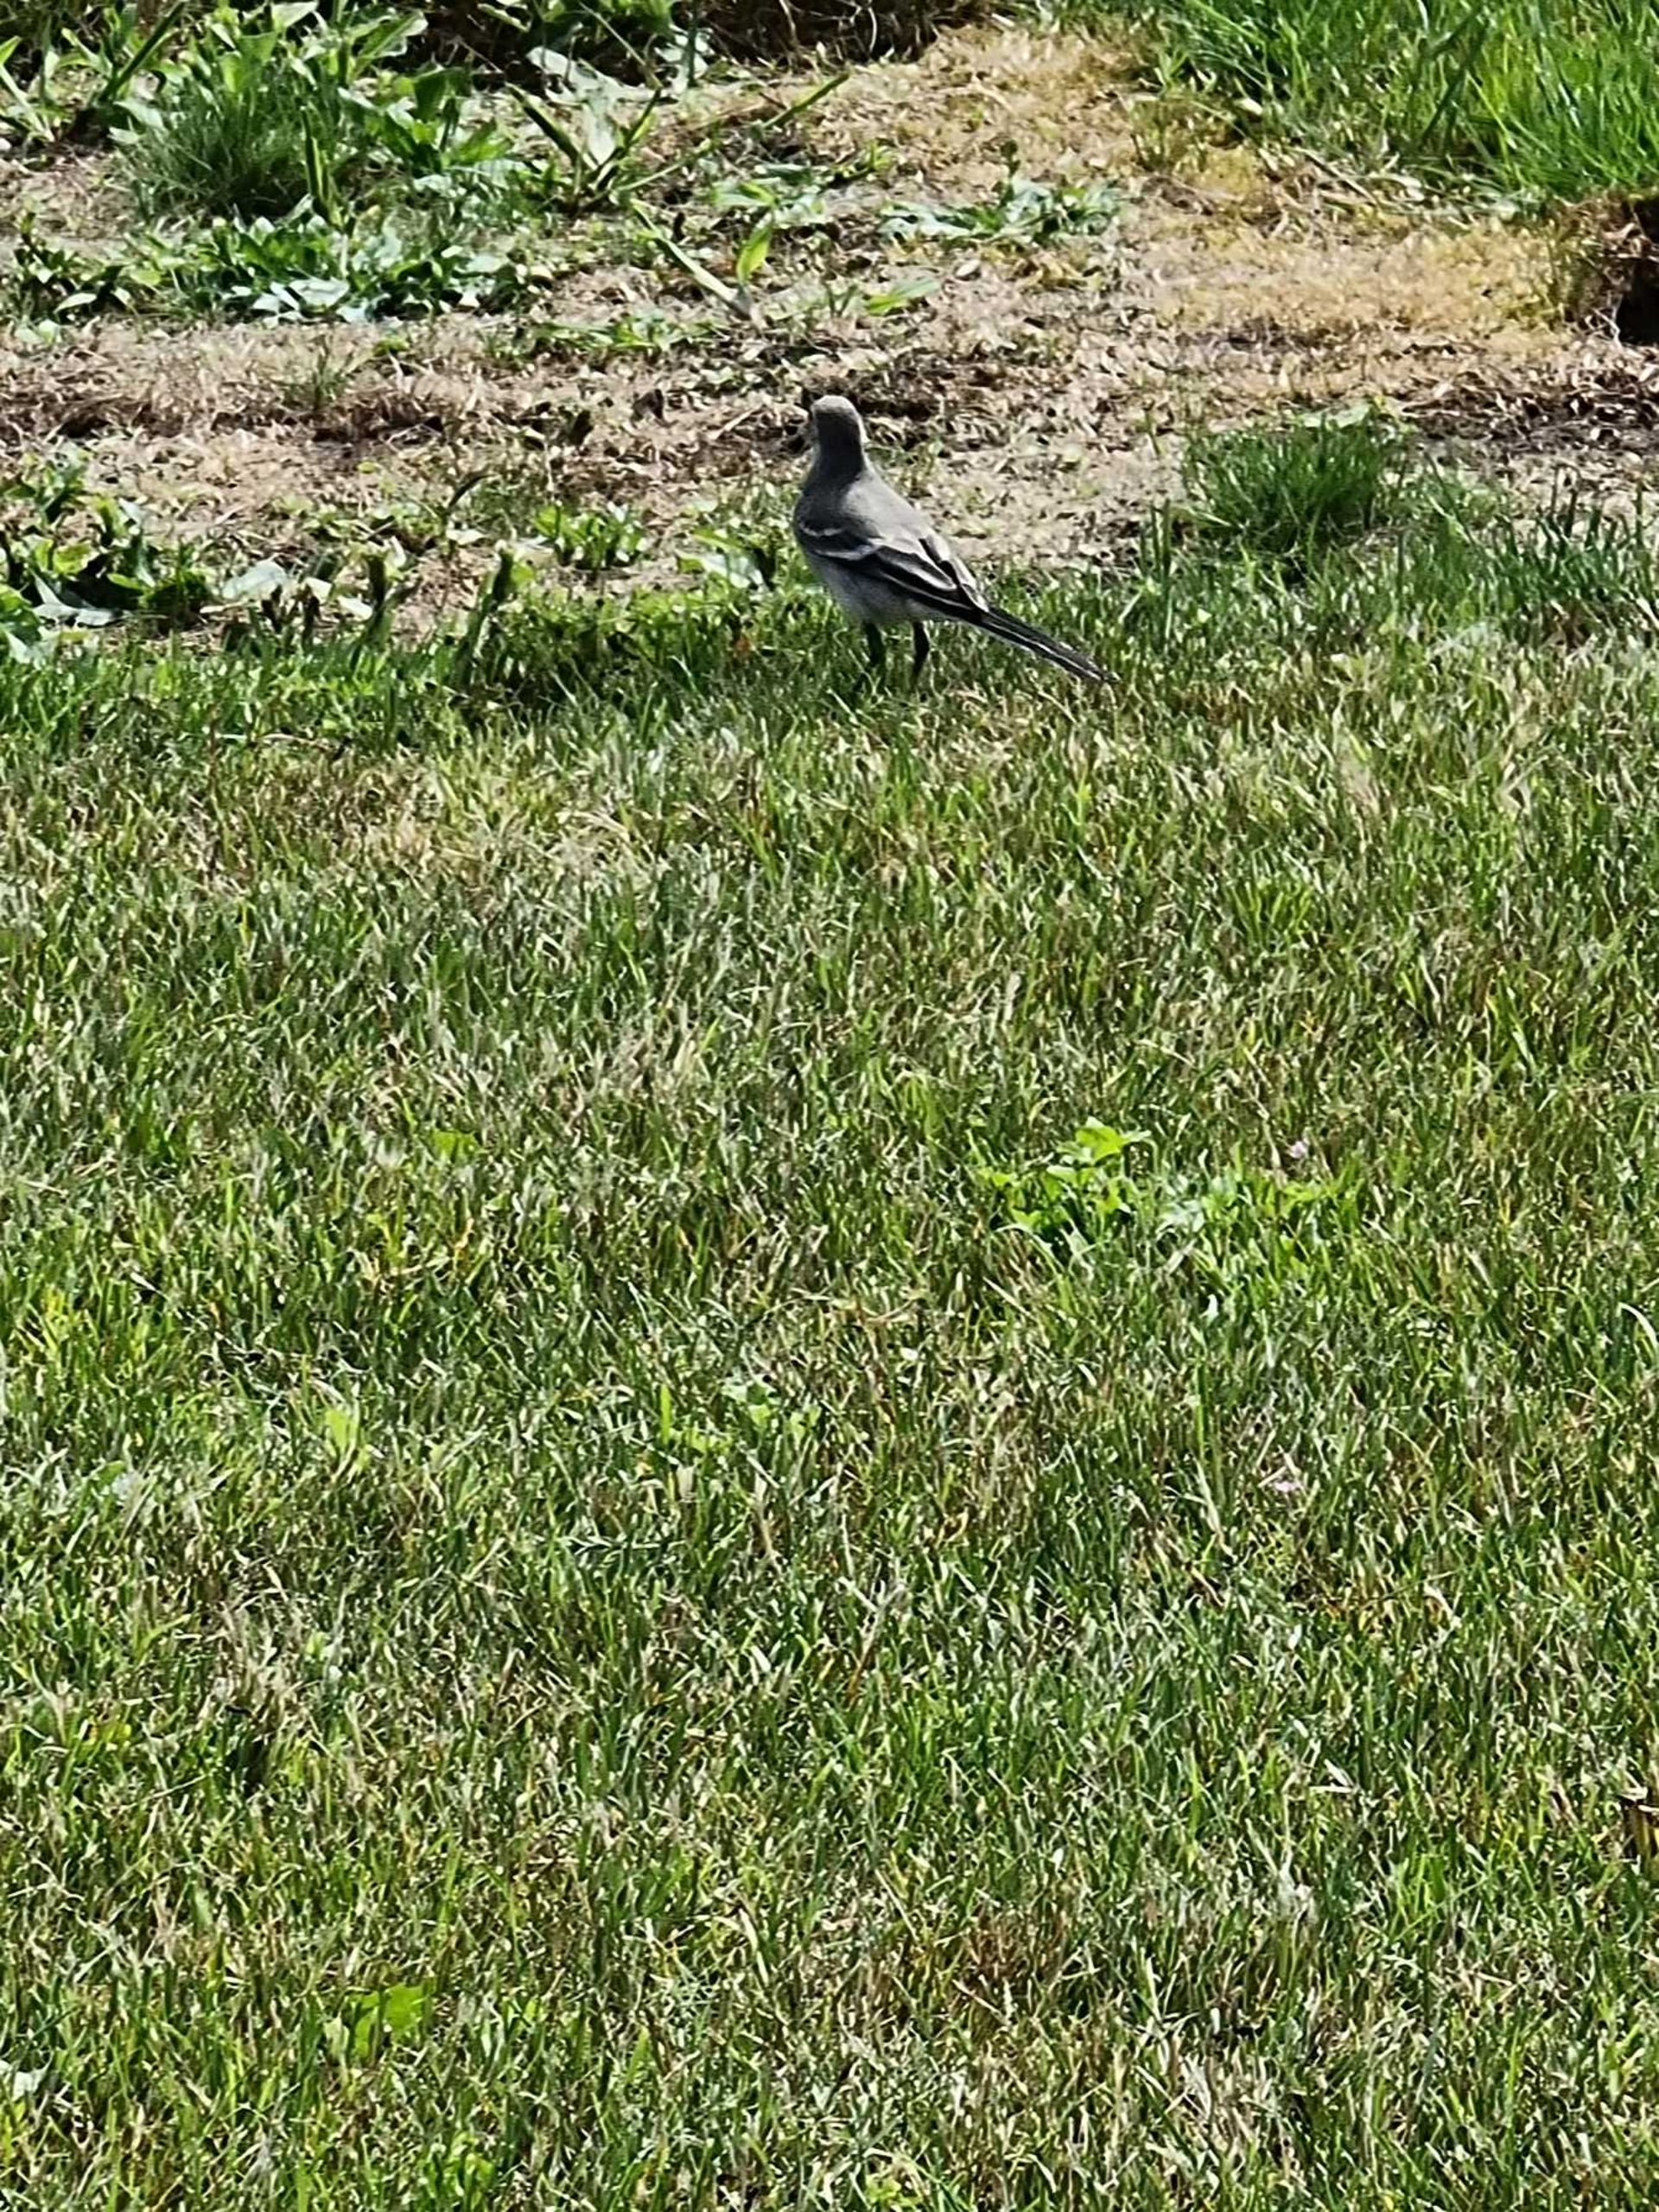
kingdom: Animalia
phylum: Chordata
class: Aves
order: Passeriformes
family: Motacillidae
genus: Motacilla
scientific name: Motacilla alba
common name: Hvid vipstjert
